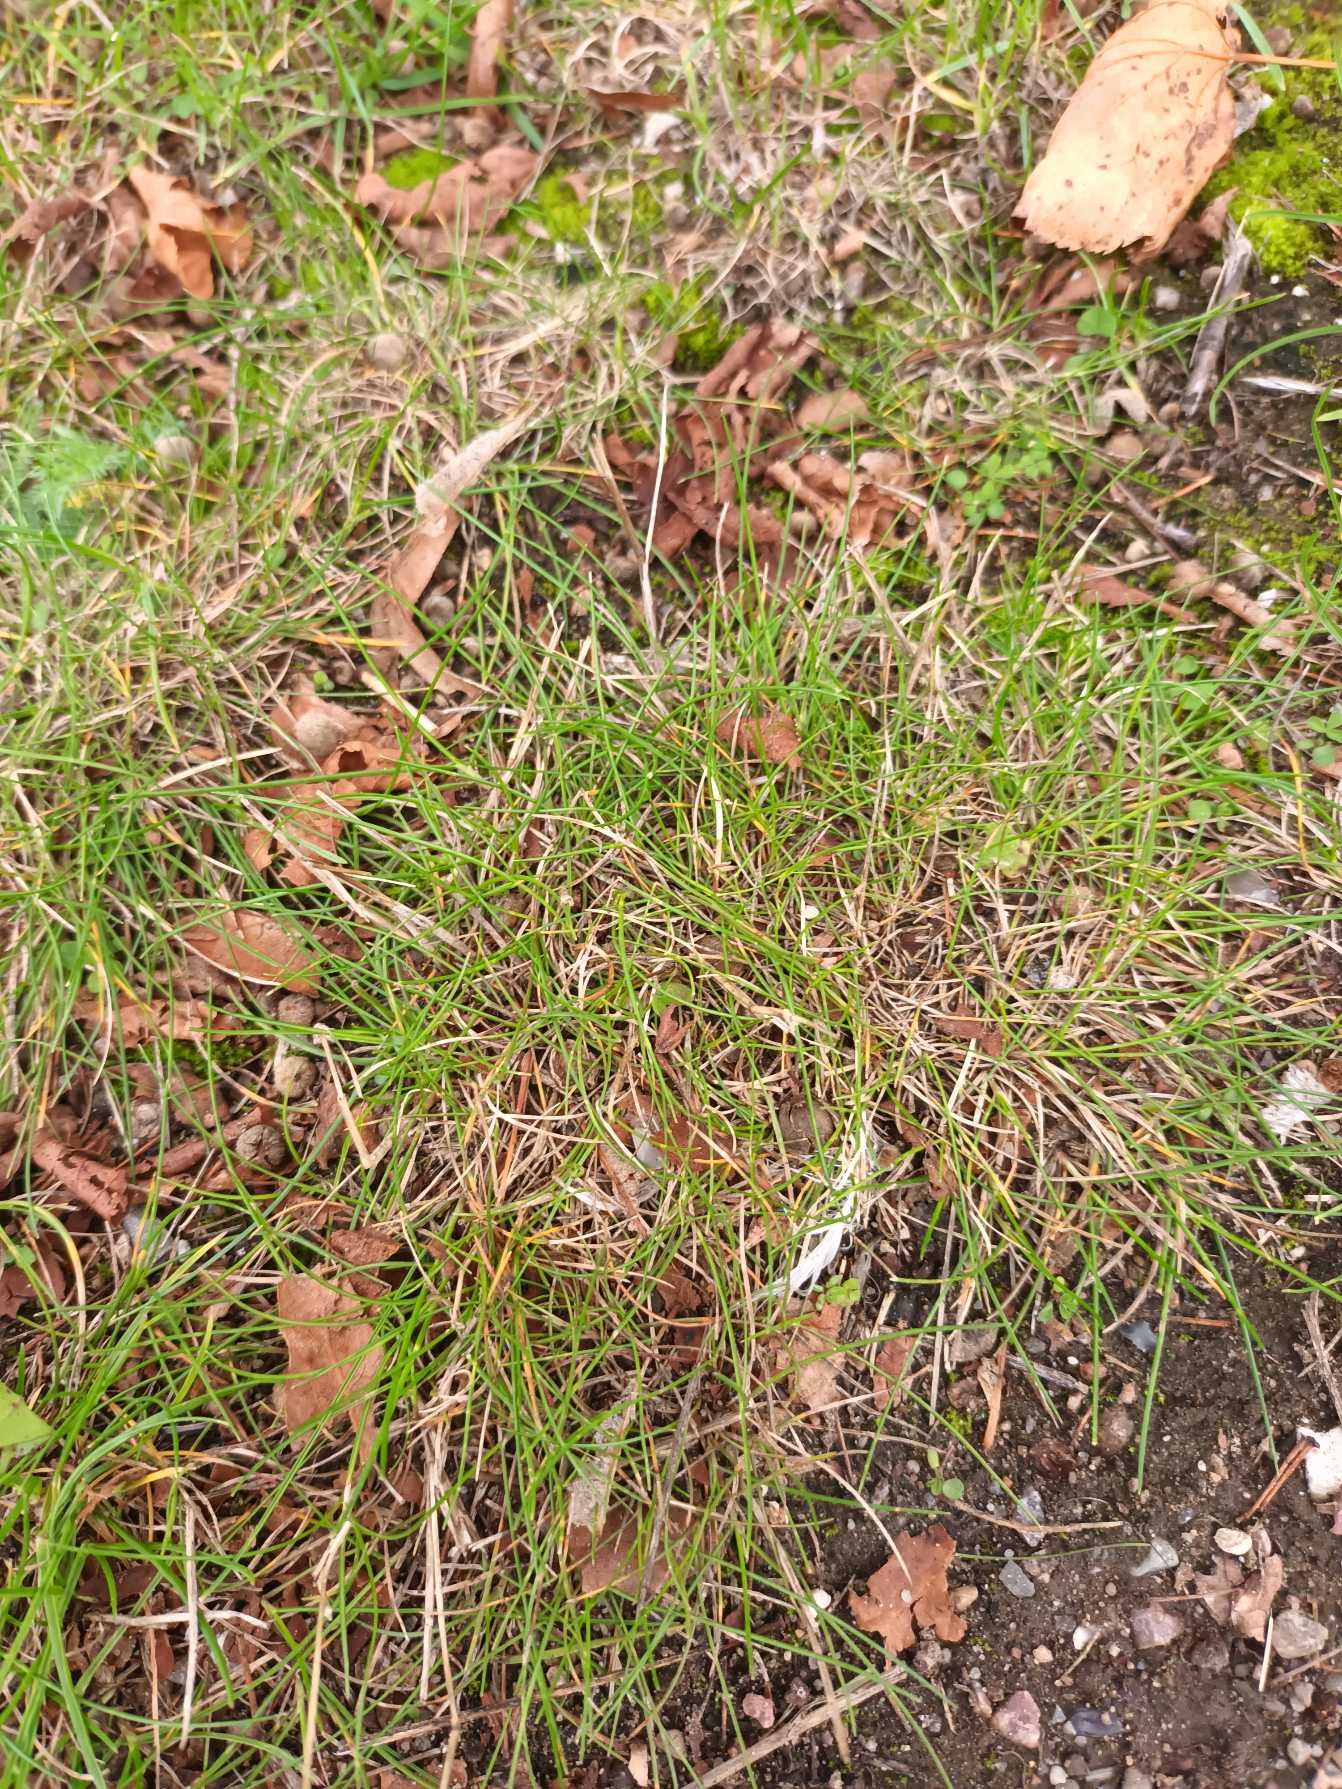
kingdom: Plantae
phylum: Tracheophyta
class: Liliopsida
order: Poales
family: Poaceae
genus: Festuca
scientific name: Festuca trachyphylla
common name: Bakke-svingel
